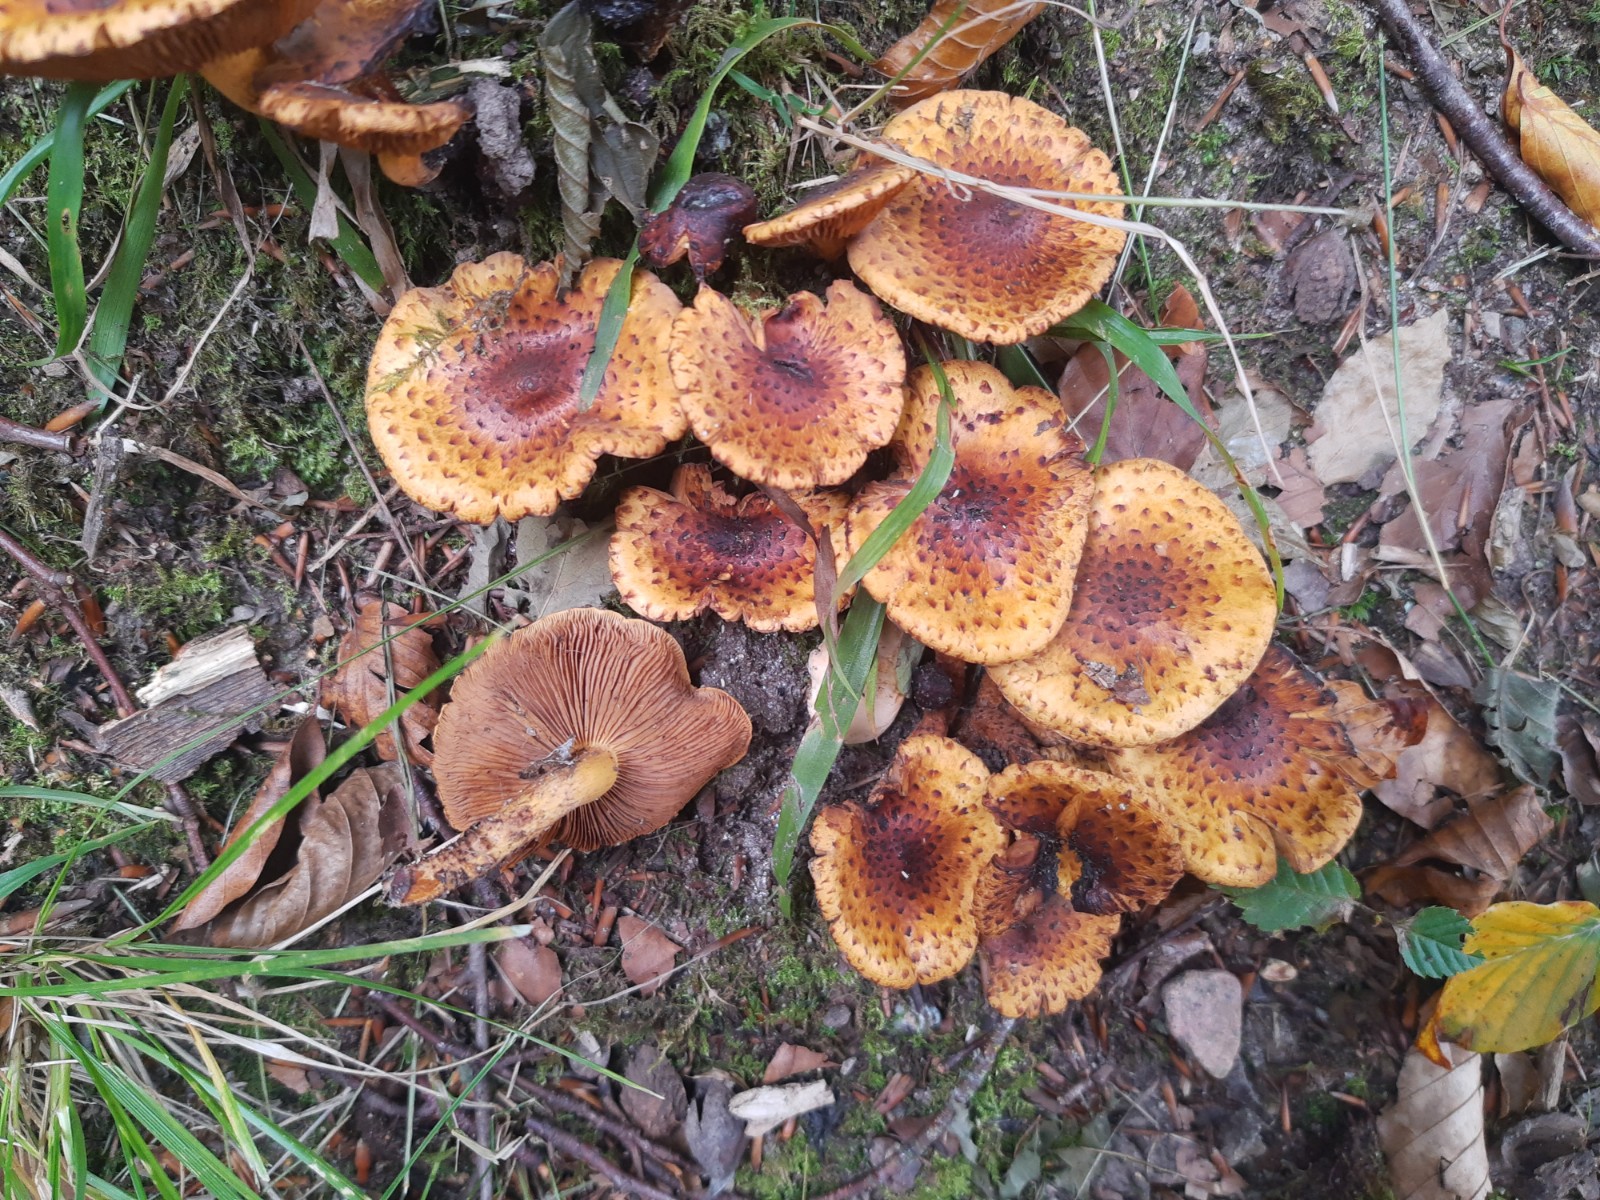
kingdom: Fungi
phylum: Basidiomycota
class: Agaricomycetes
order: Agaricales
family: Strophariaceae
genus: Pholiota
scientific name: Pholiota jahnii
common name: slimet skælhat
